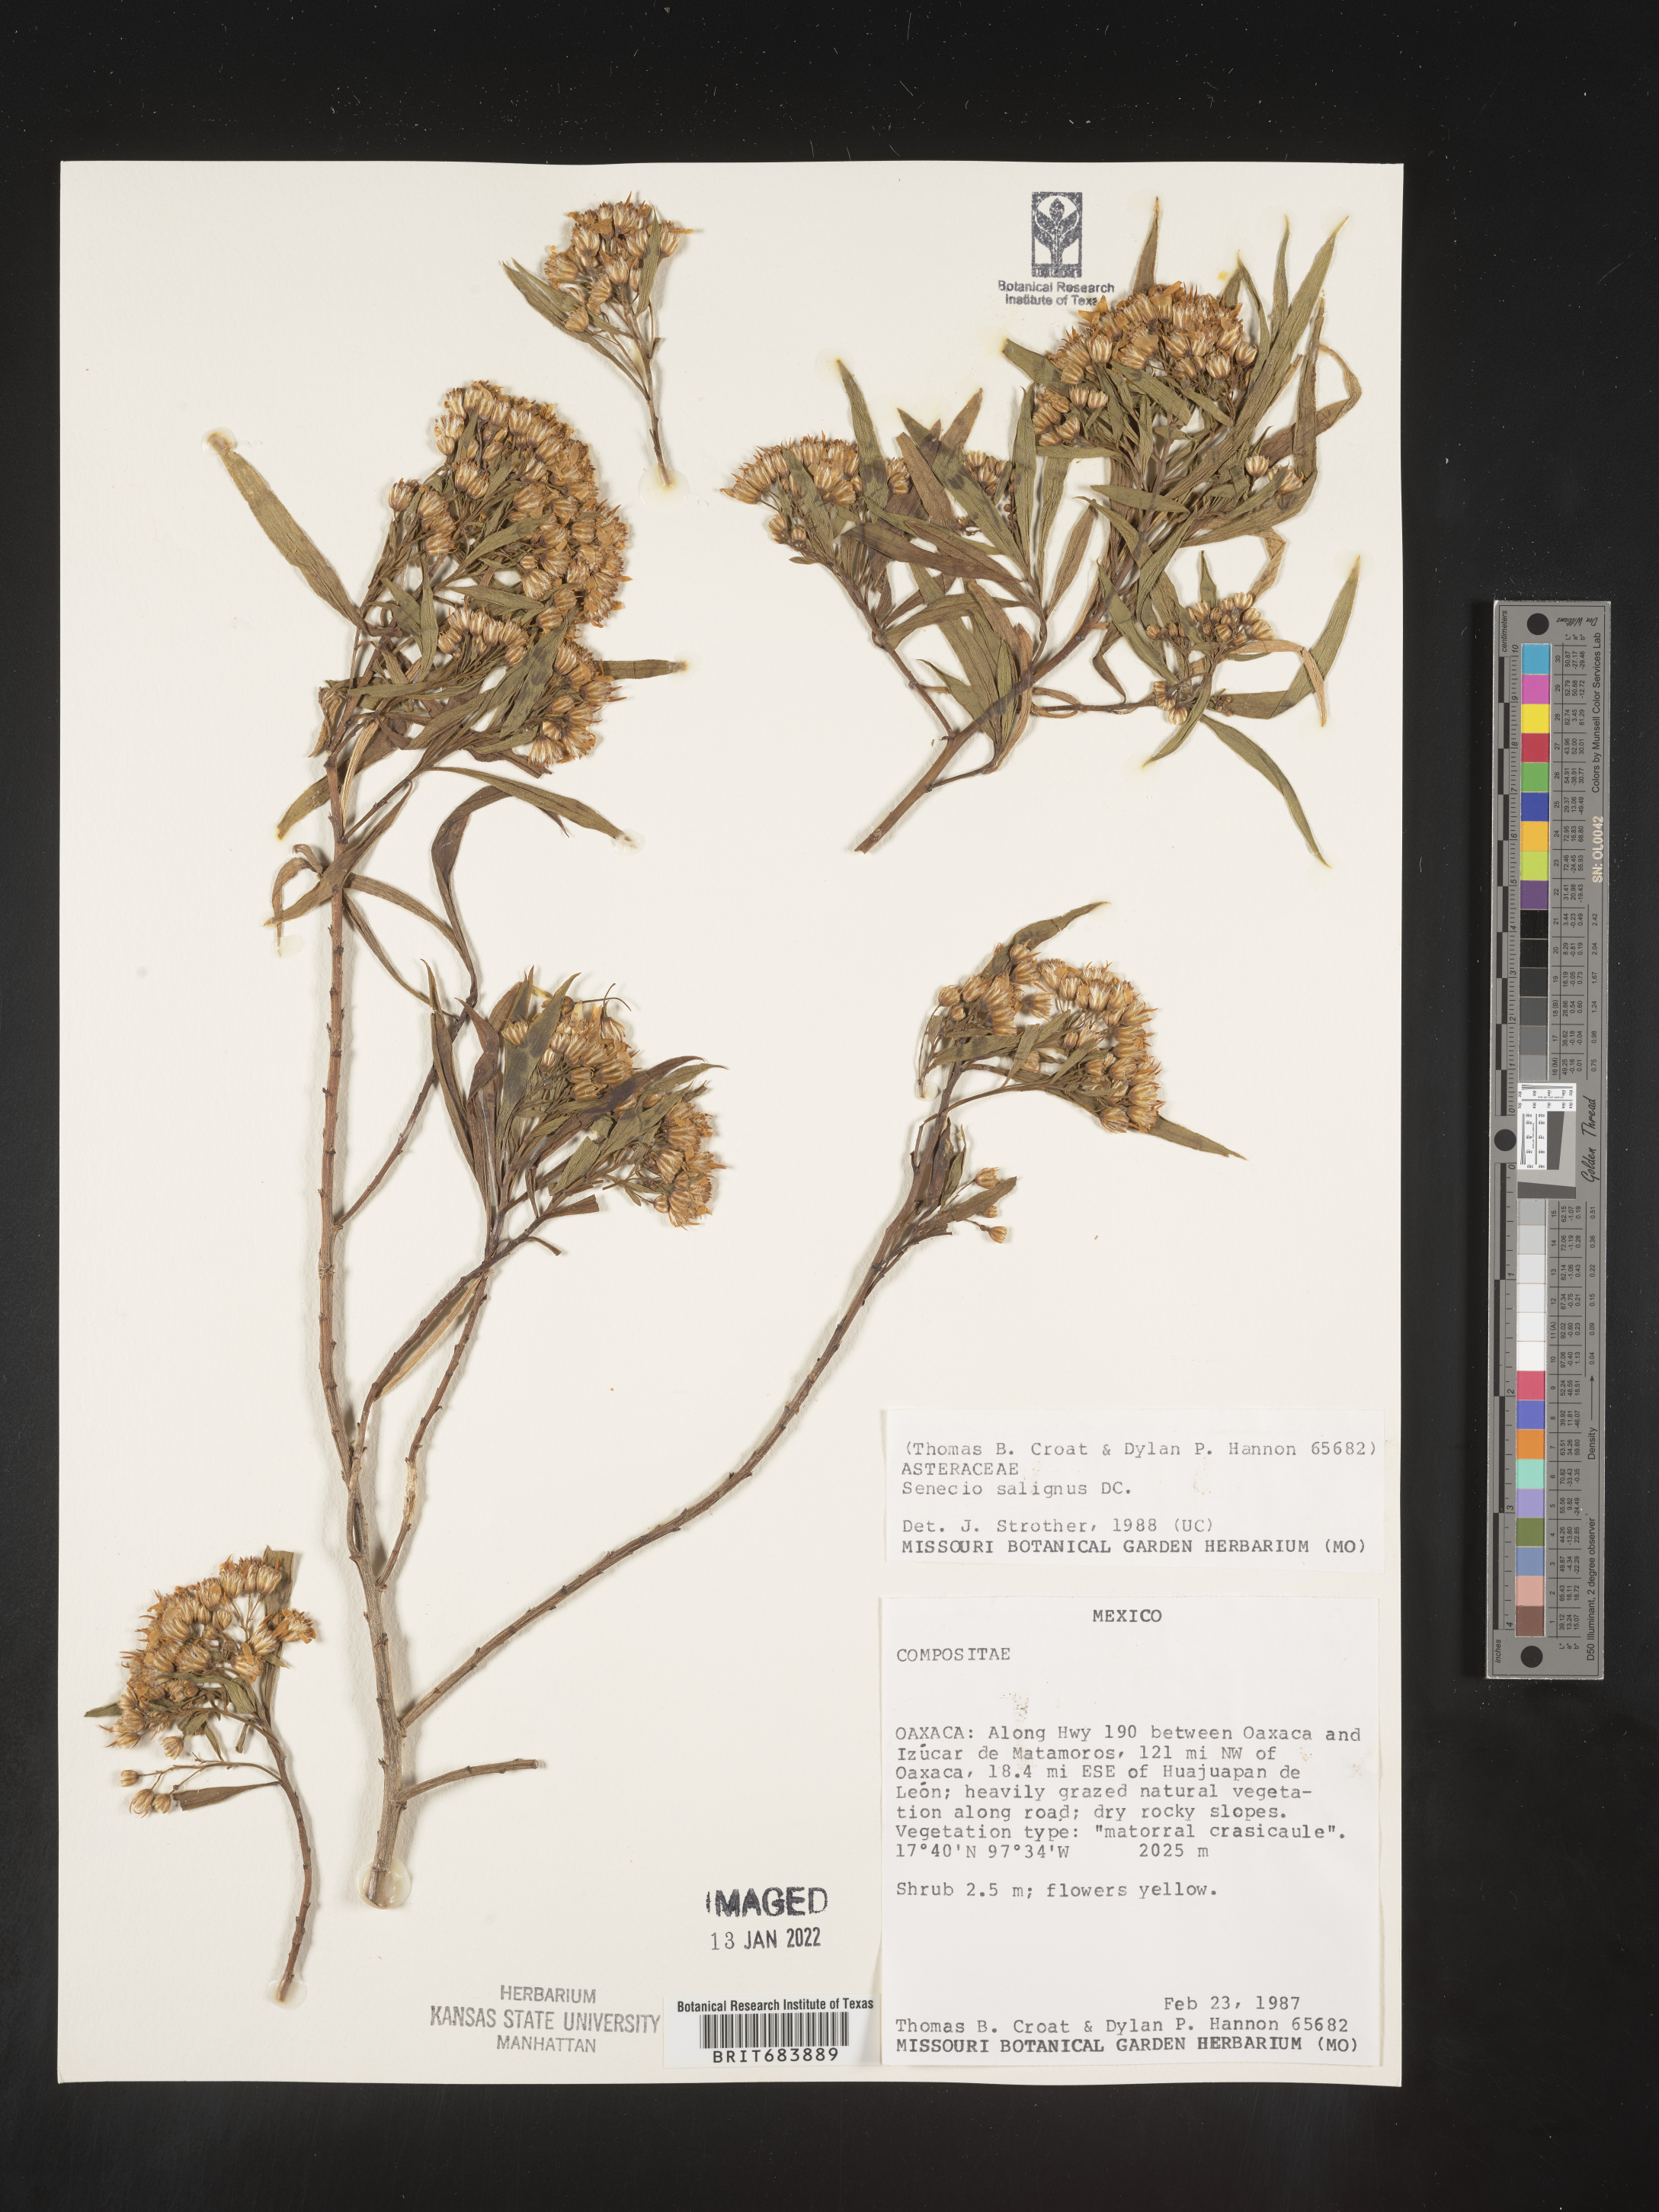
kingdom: Plantae
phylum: Tracheophyta
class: Magnoliopsida
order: Asterales
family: Asteraceae
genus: Barkleyanthus
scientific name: Barkleyanthus
